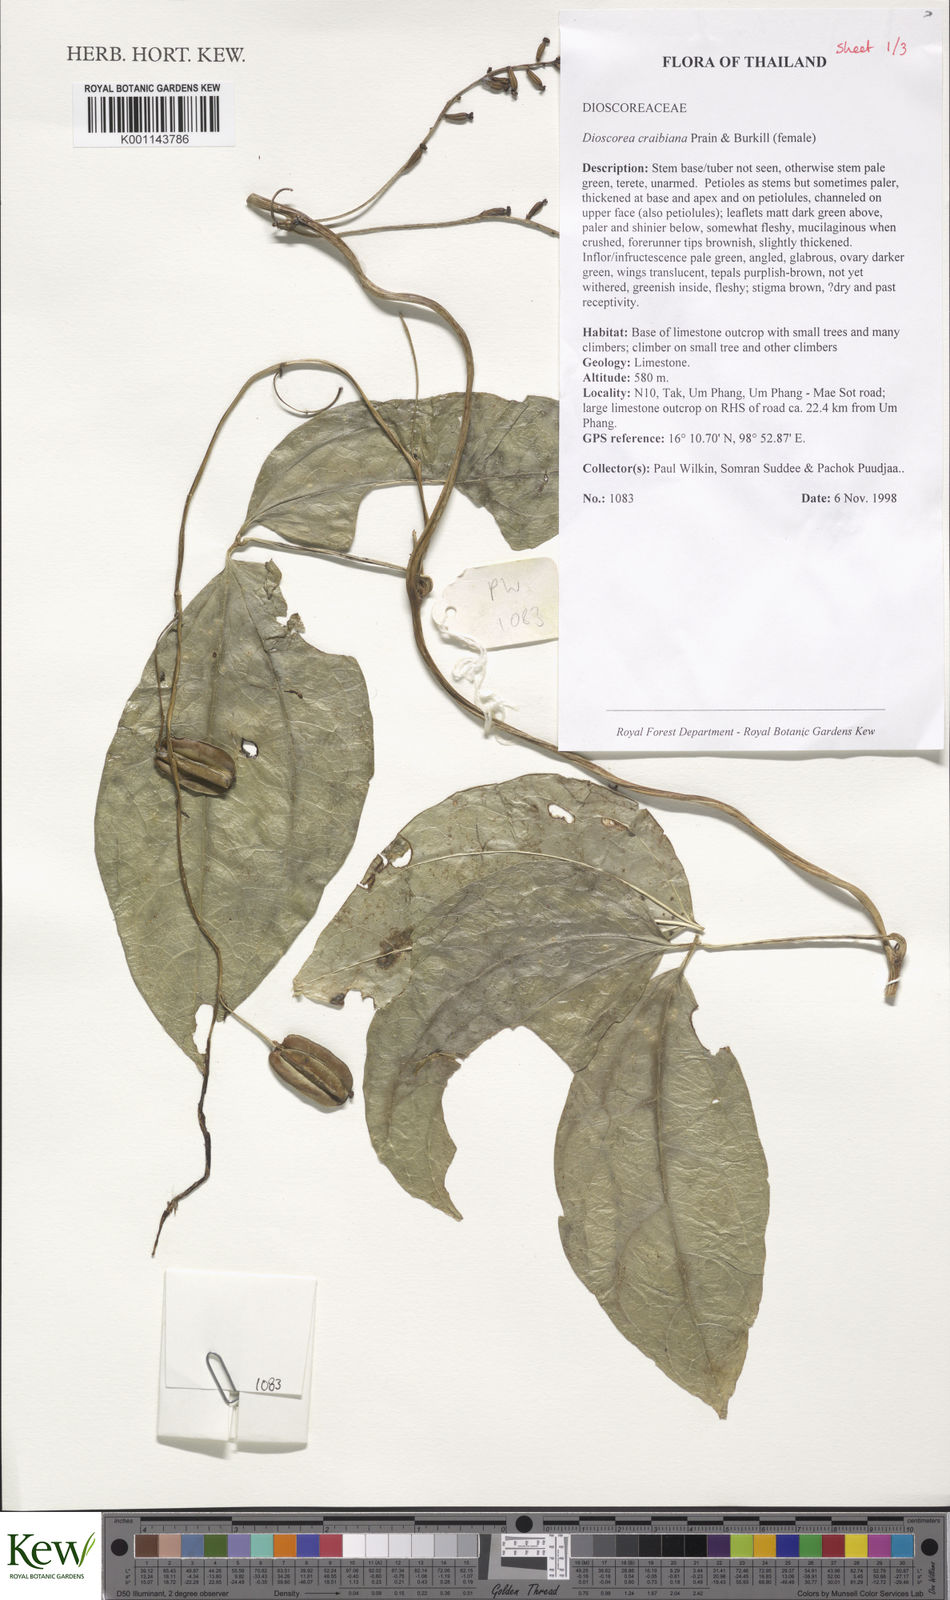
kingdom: Plantae
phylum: Tracheophyta
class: Liliopsida
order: Dioscoreales
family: Dioscoreaceae
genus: Dioscorea
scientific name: Dioscorea craibiana
